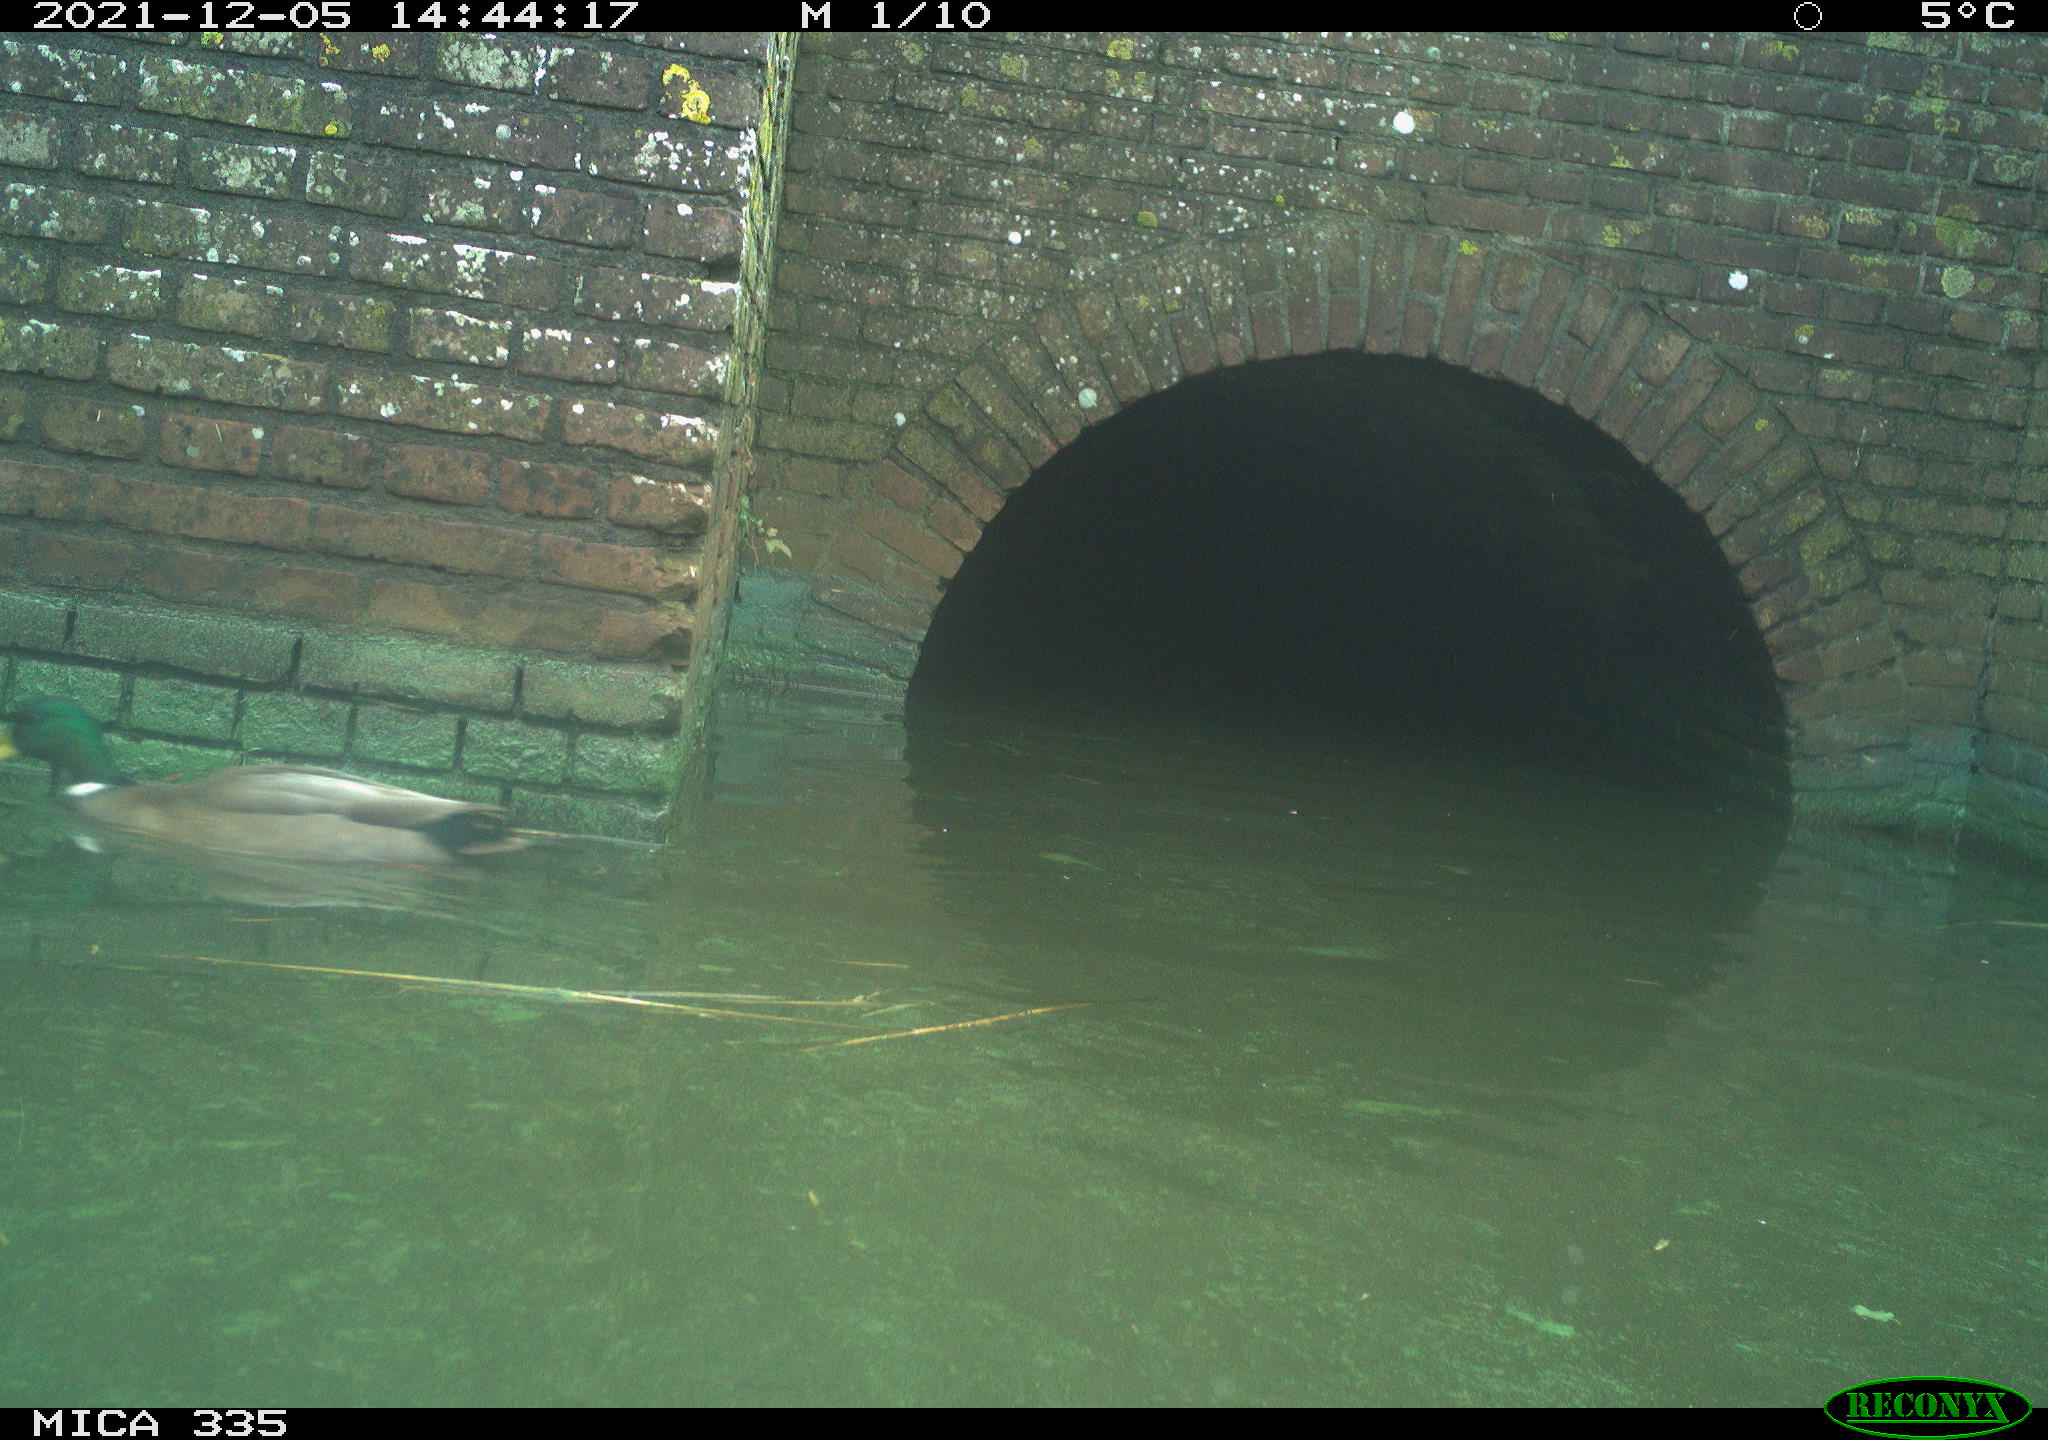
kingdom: Animalia
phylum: Chordata
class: Aves
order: Anseriformes
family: Anatidae
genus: Anas
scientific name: Anas platyrhynchos
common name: Mallard
